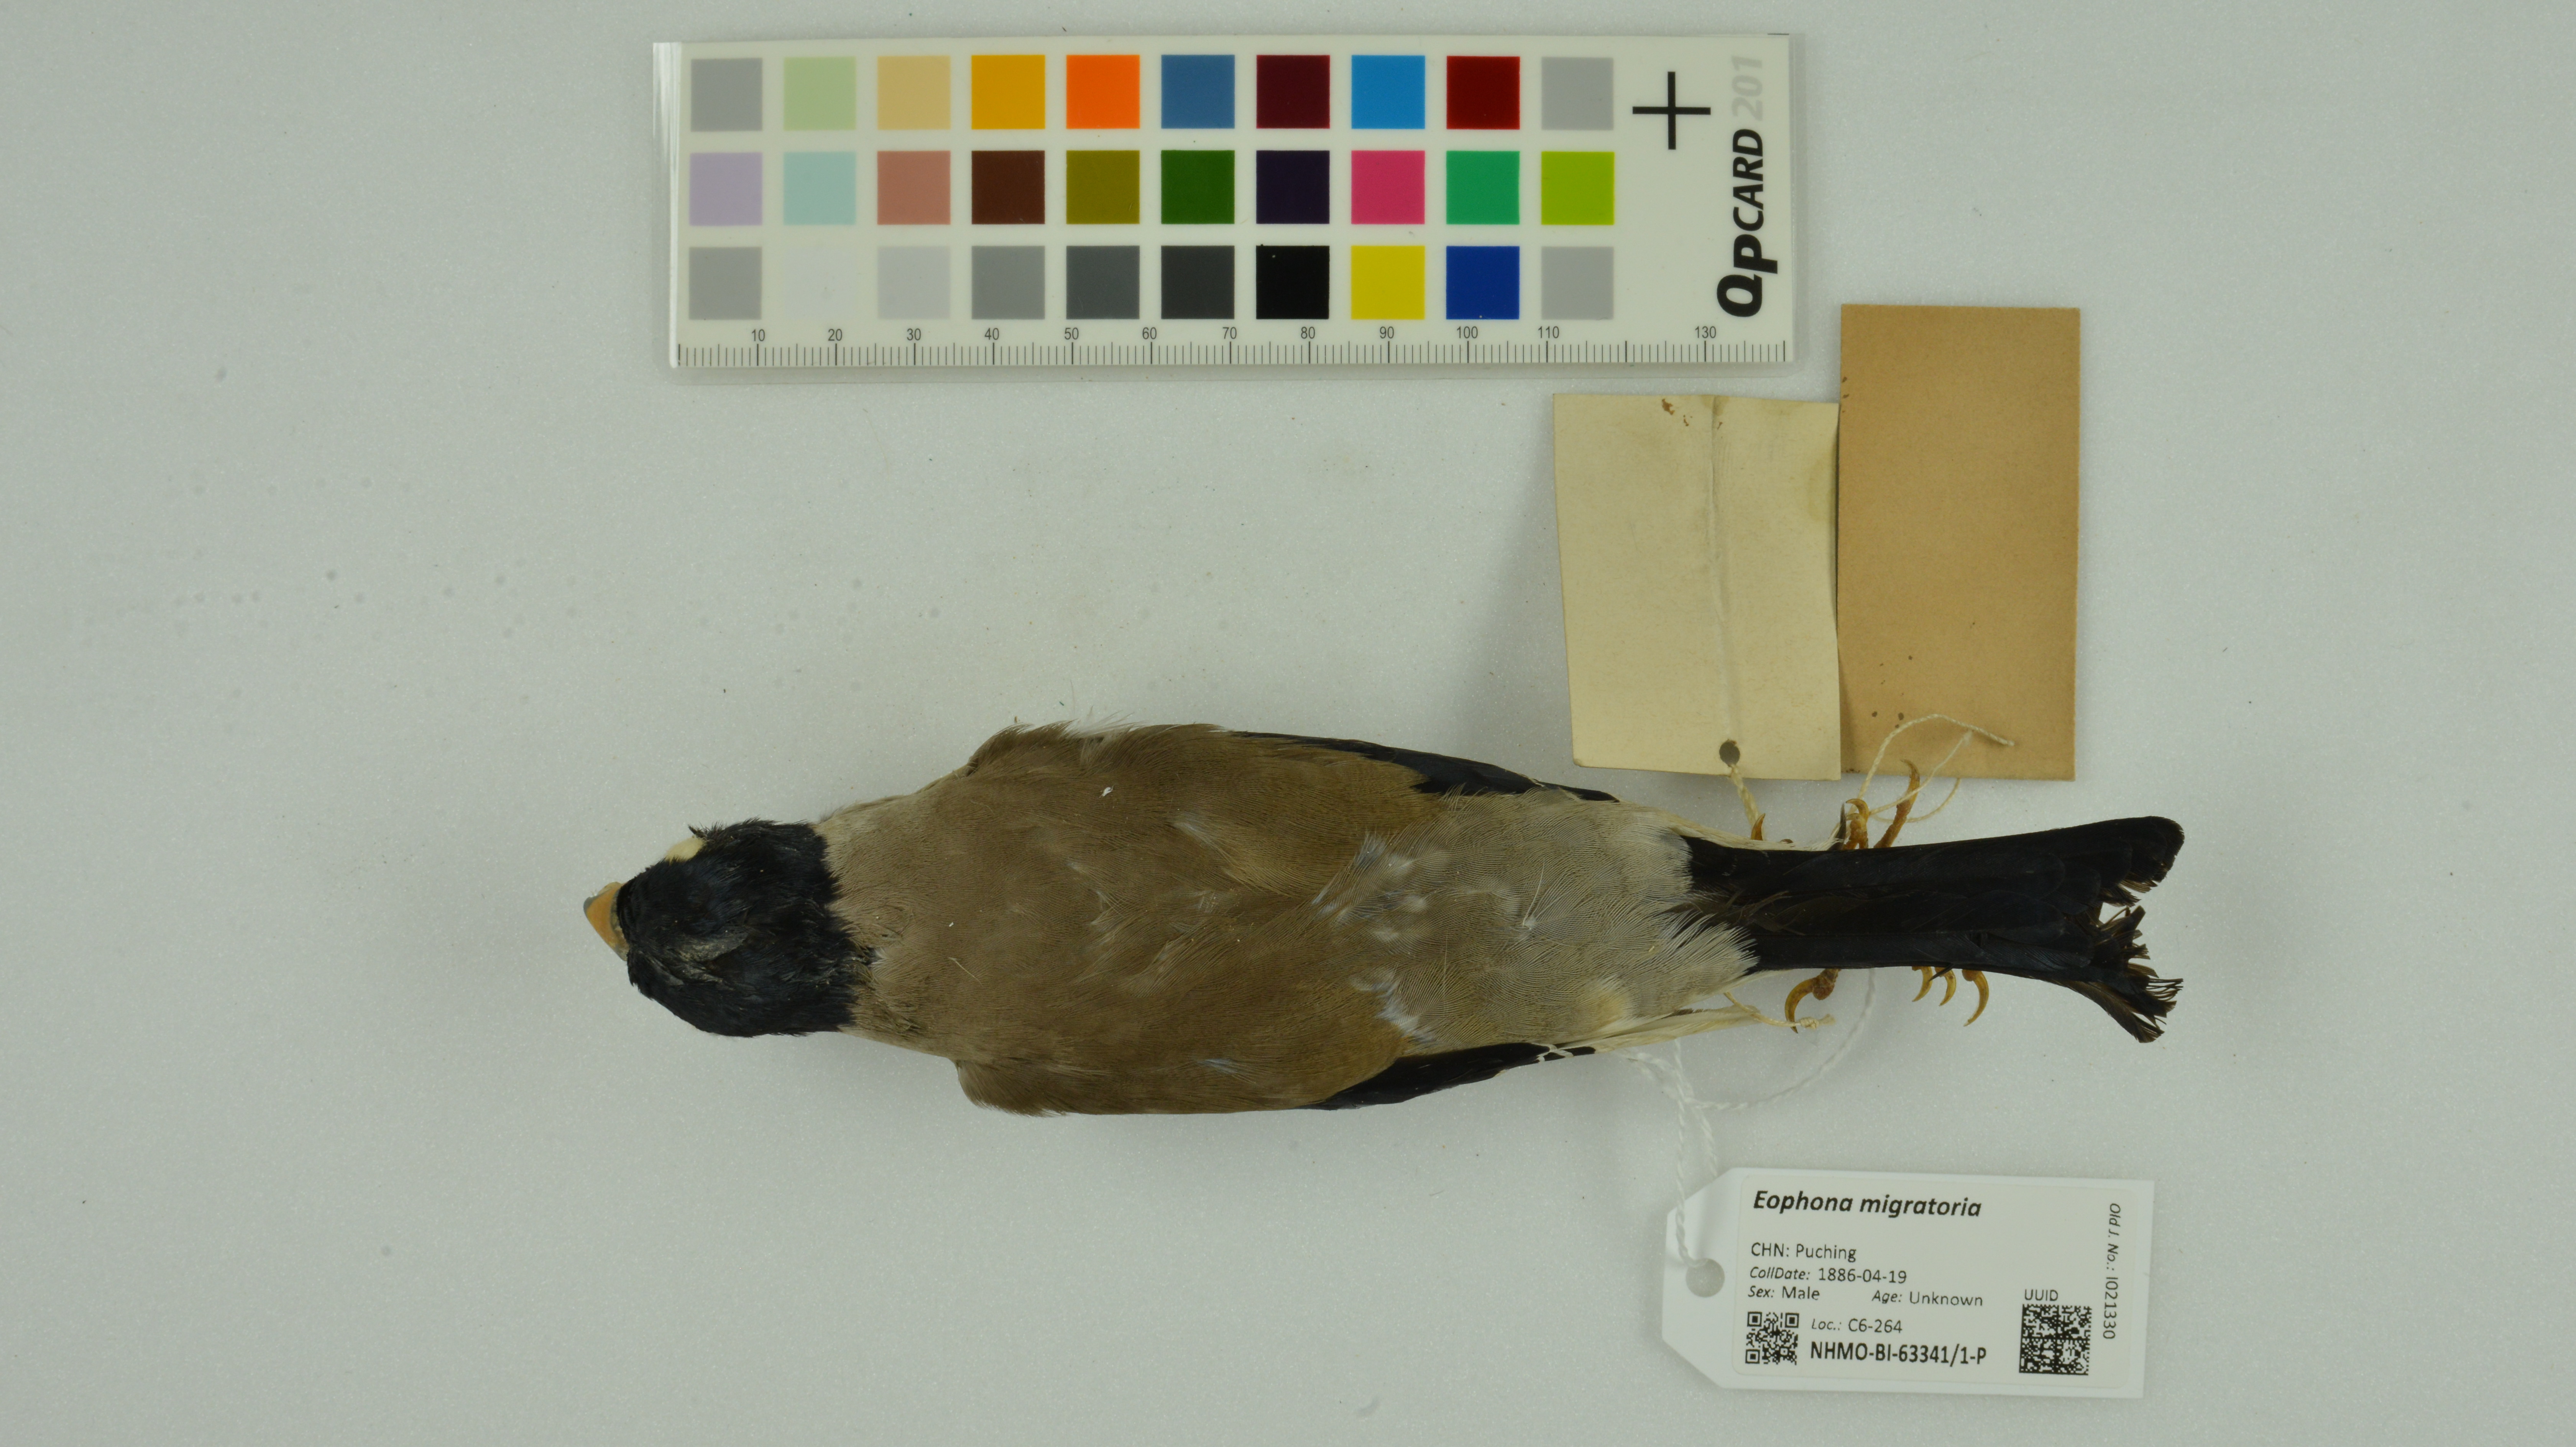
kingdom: Animalia
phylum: Chordata
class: Aves
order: Passeriformes
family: Fringillidae
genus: Eophona
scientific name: Eophona migratoria
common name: Yellow-billed grosbeak
